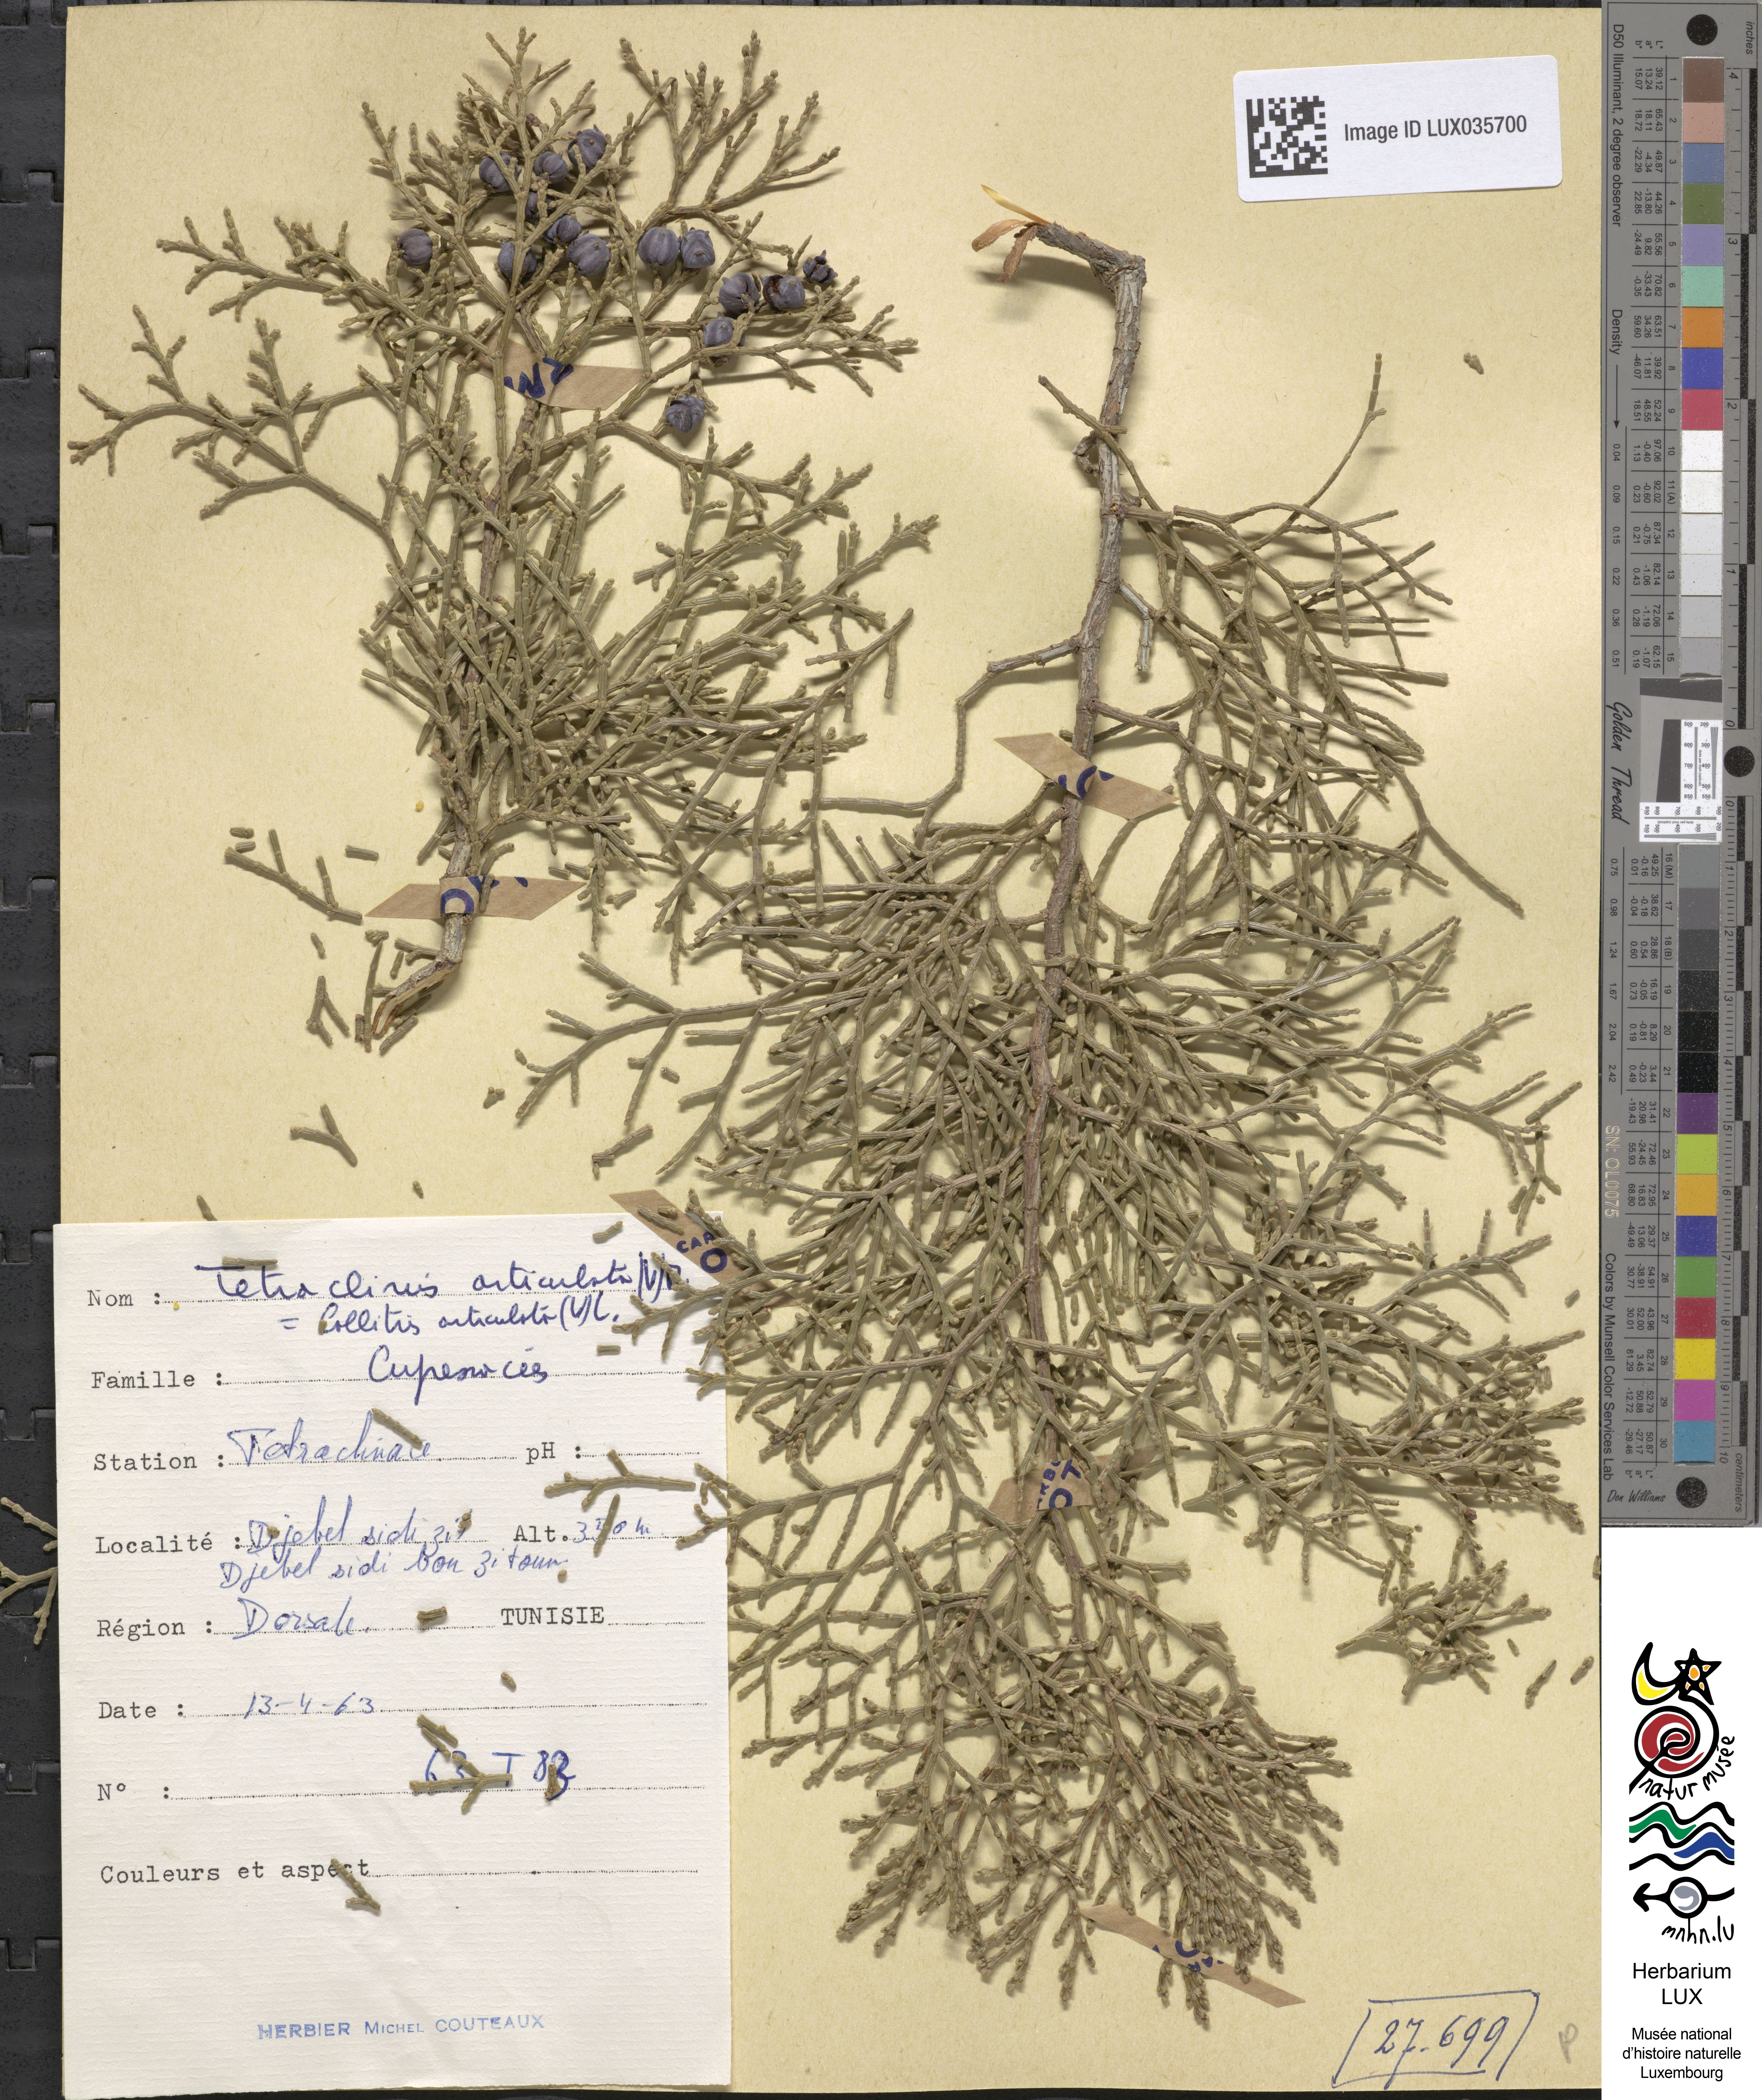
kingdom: Plantae
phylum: Tracheophyta
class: Pinopsida
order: Pinales
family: Cupressaceae
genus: Tetraclinis
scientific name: Tetraclinis articulata
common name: Sandarac
